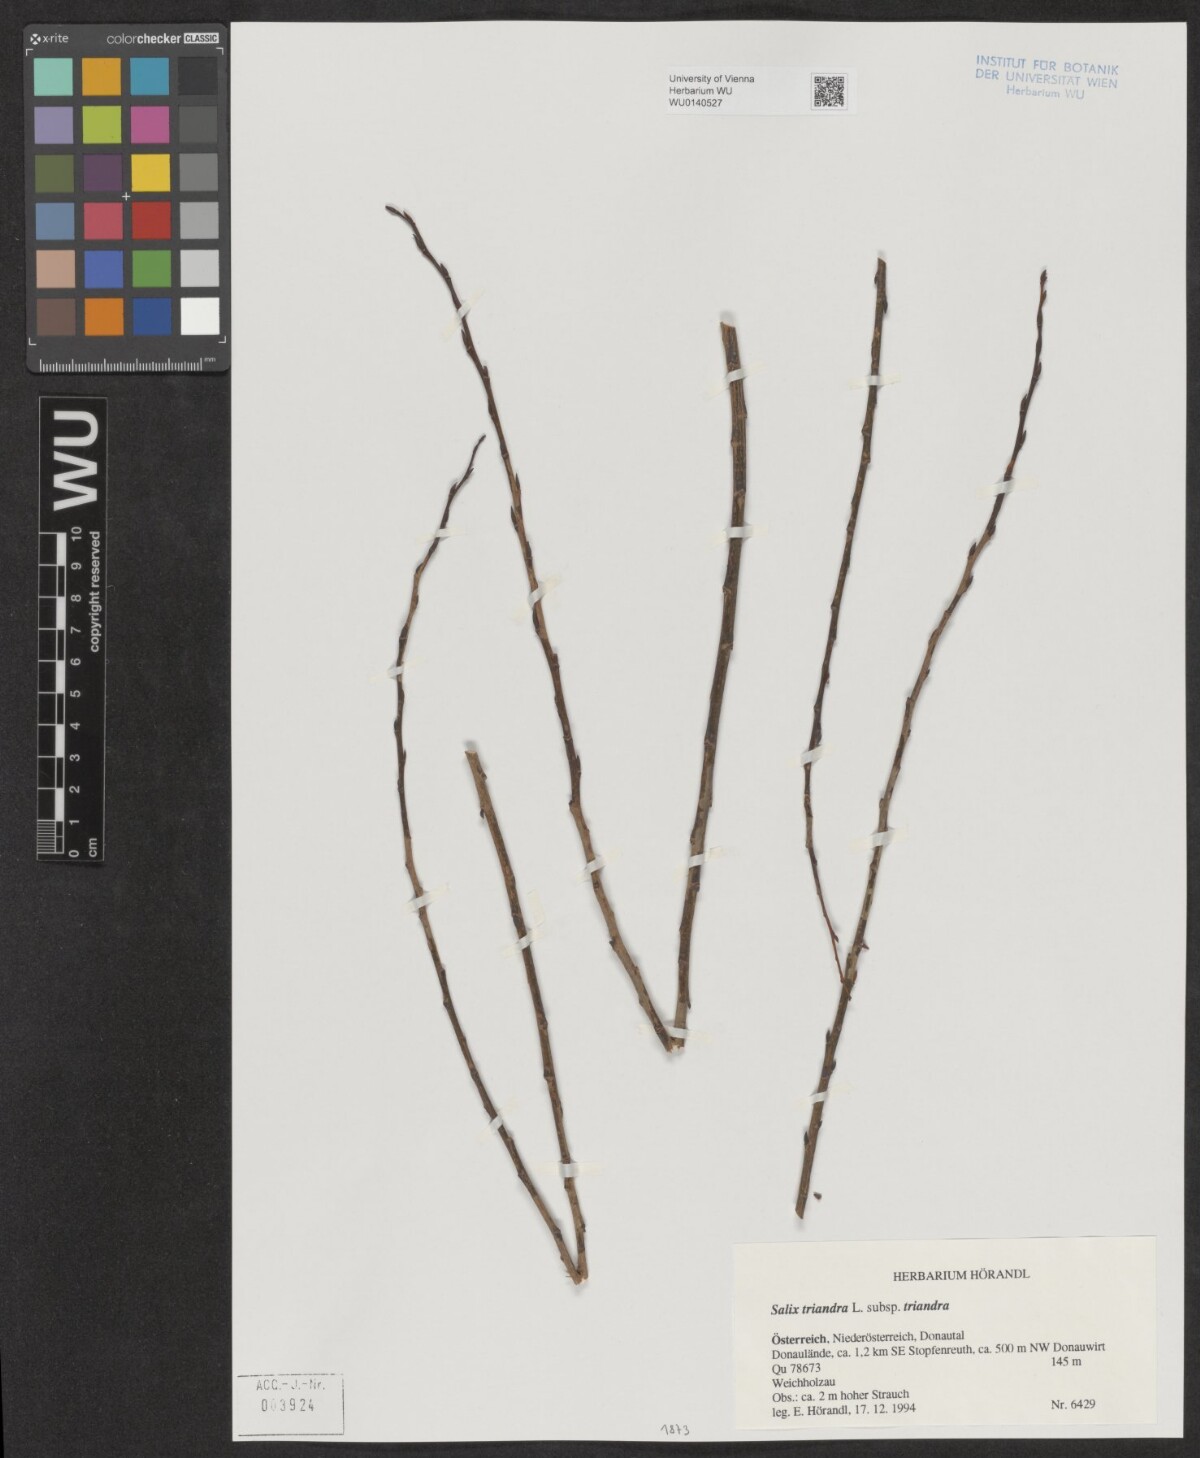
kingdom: Plantae
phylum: Tracheophyta
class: Magnoliopsida
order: Malpighiales
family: Salicaceae
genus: Salix
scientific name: Salix triandra
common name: Almond willow
